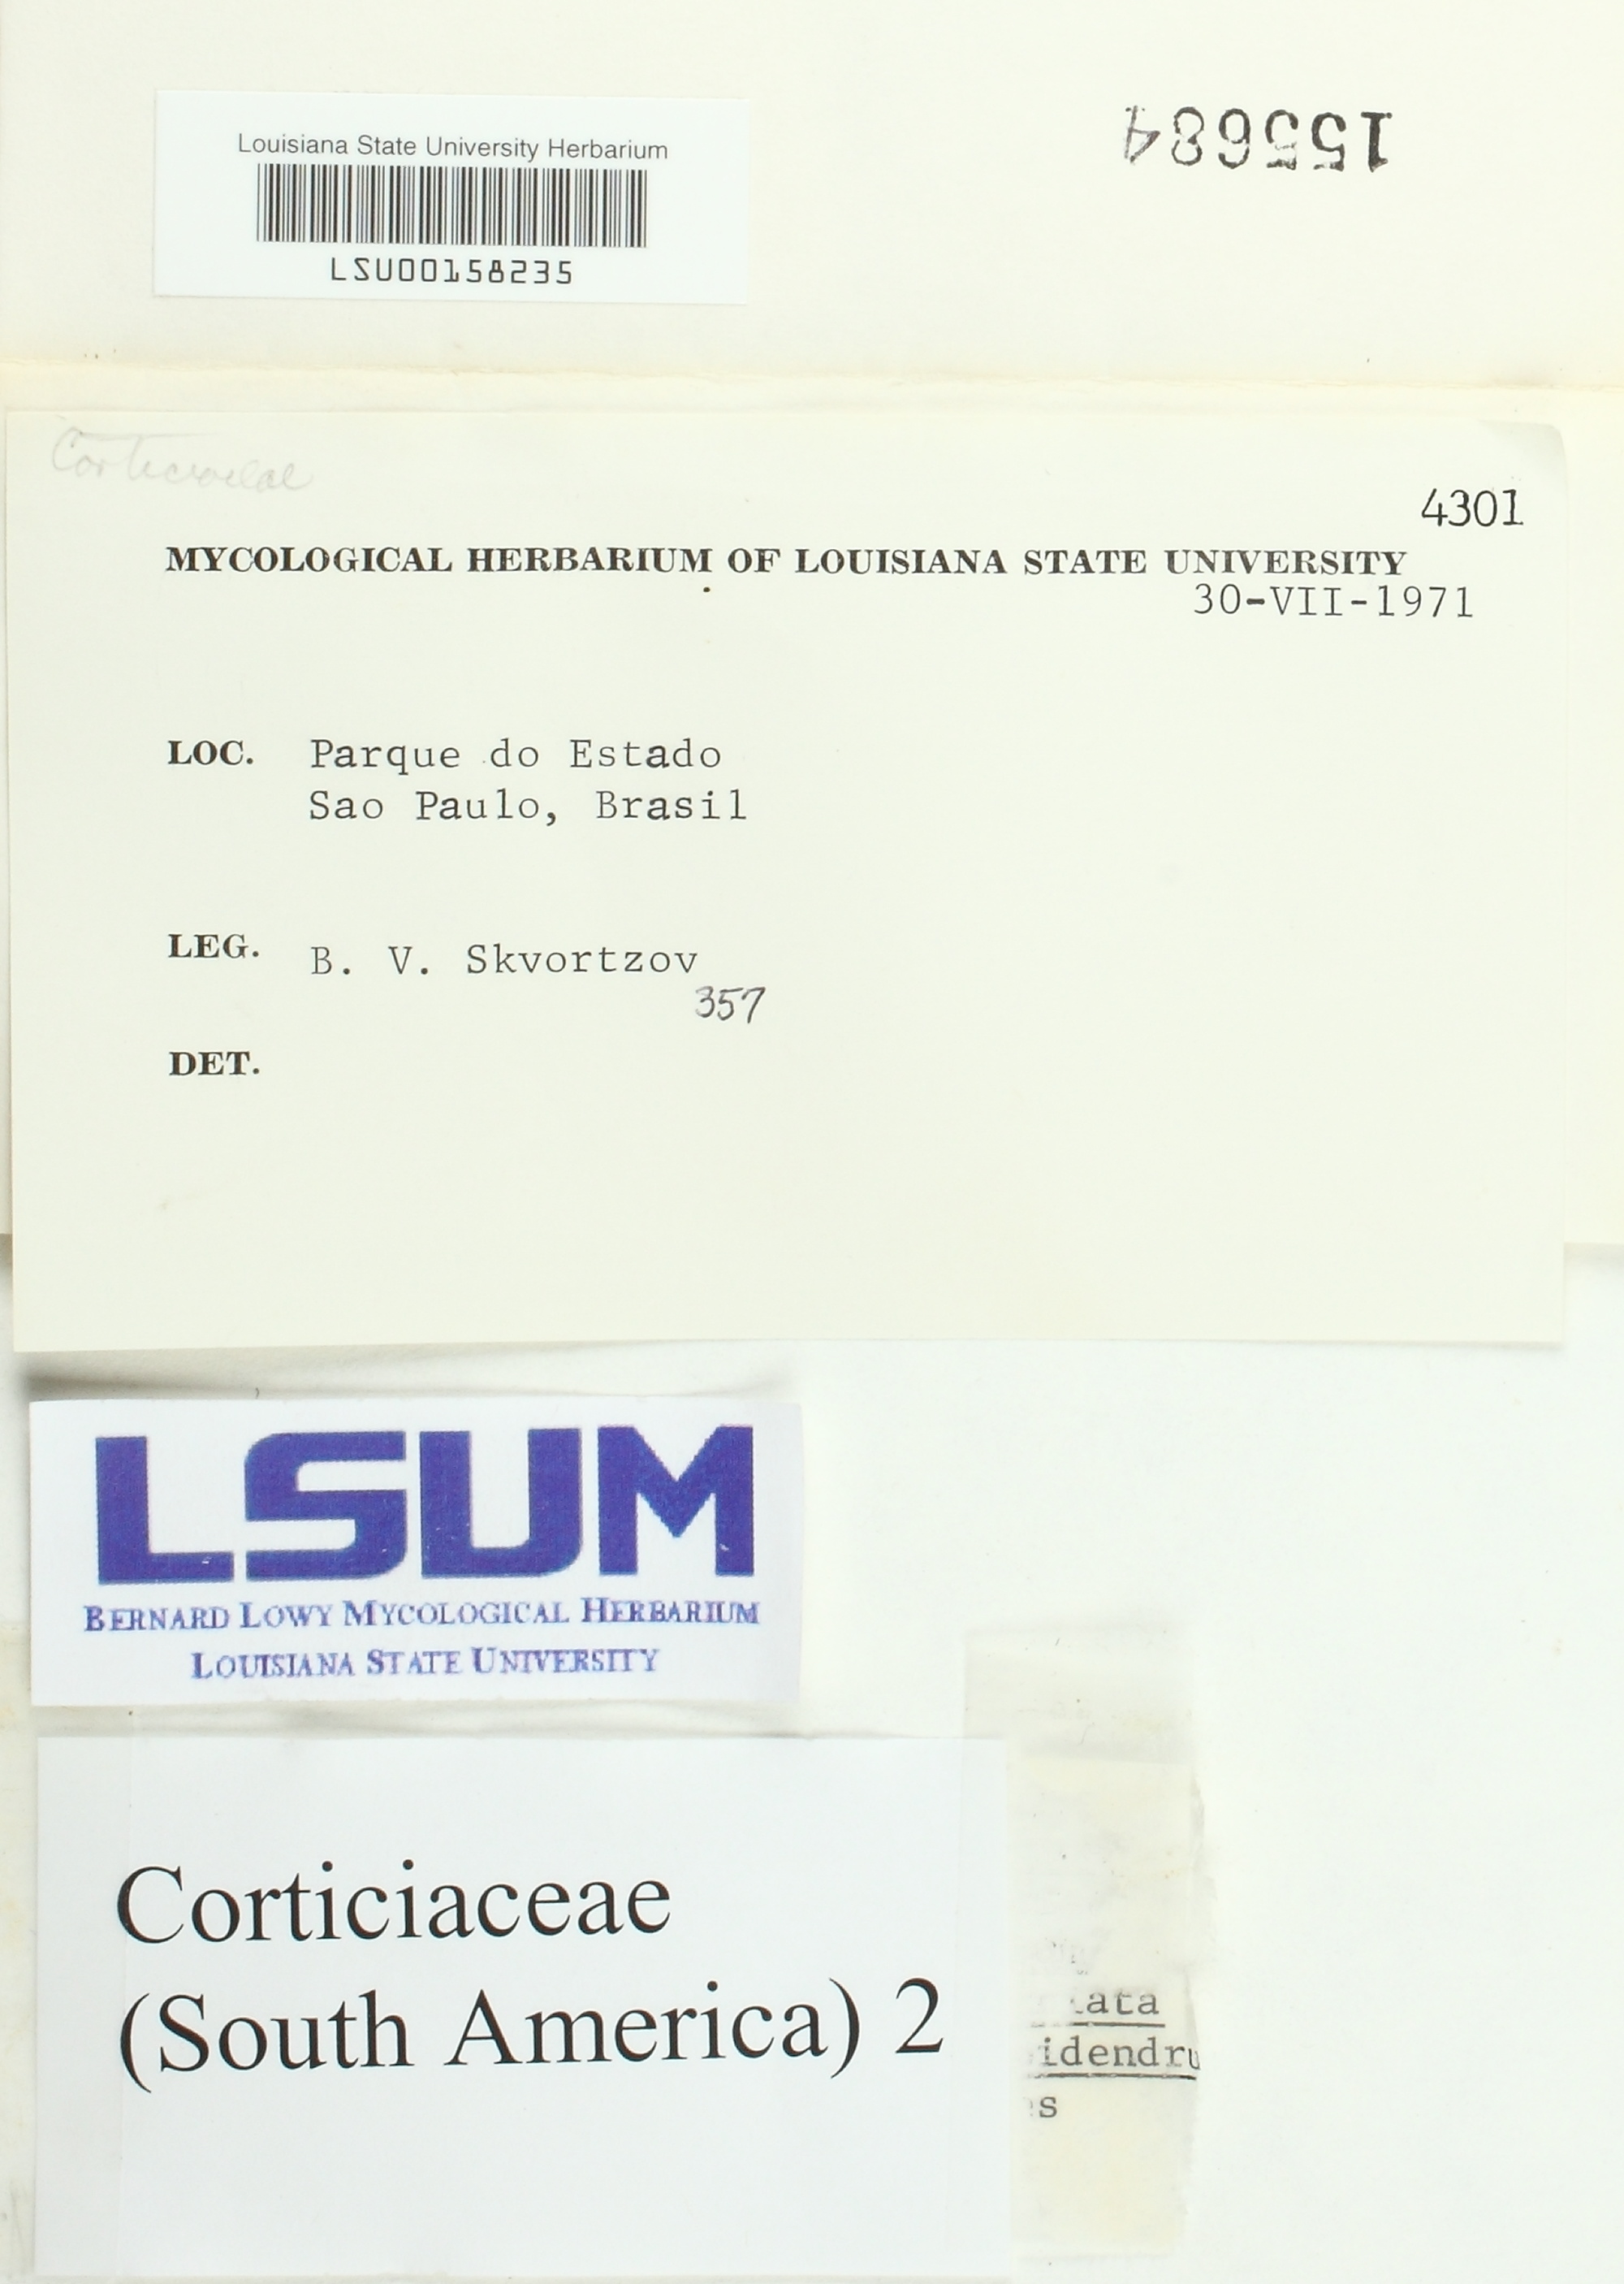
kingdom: Fungi
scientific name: Fungi
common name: Fungi
